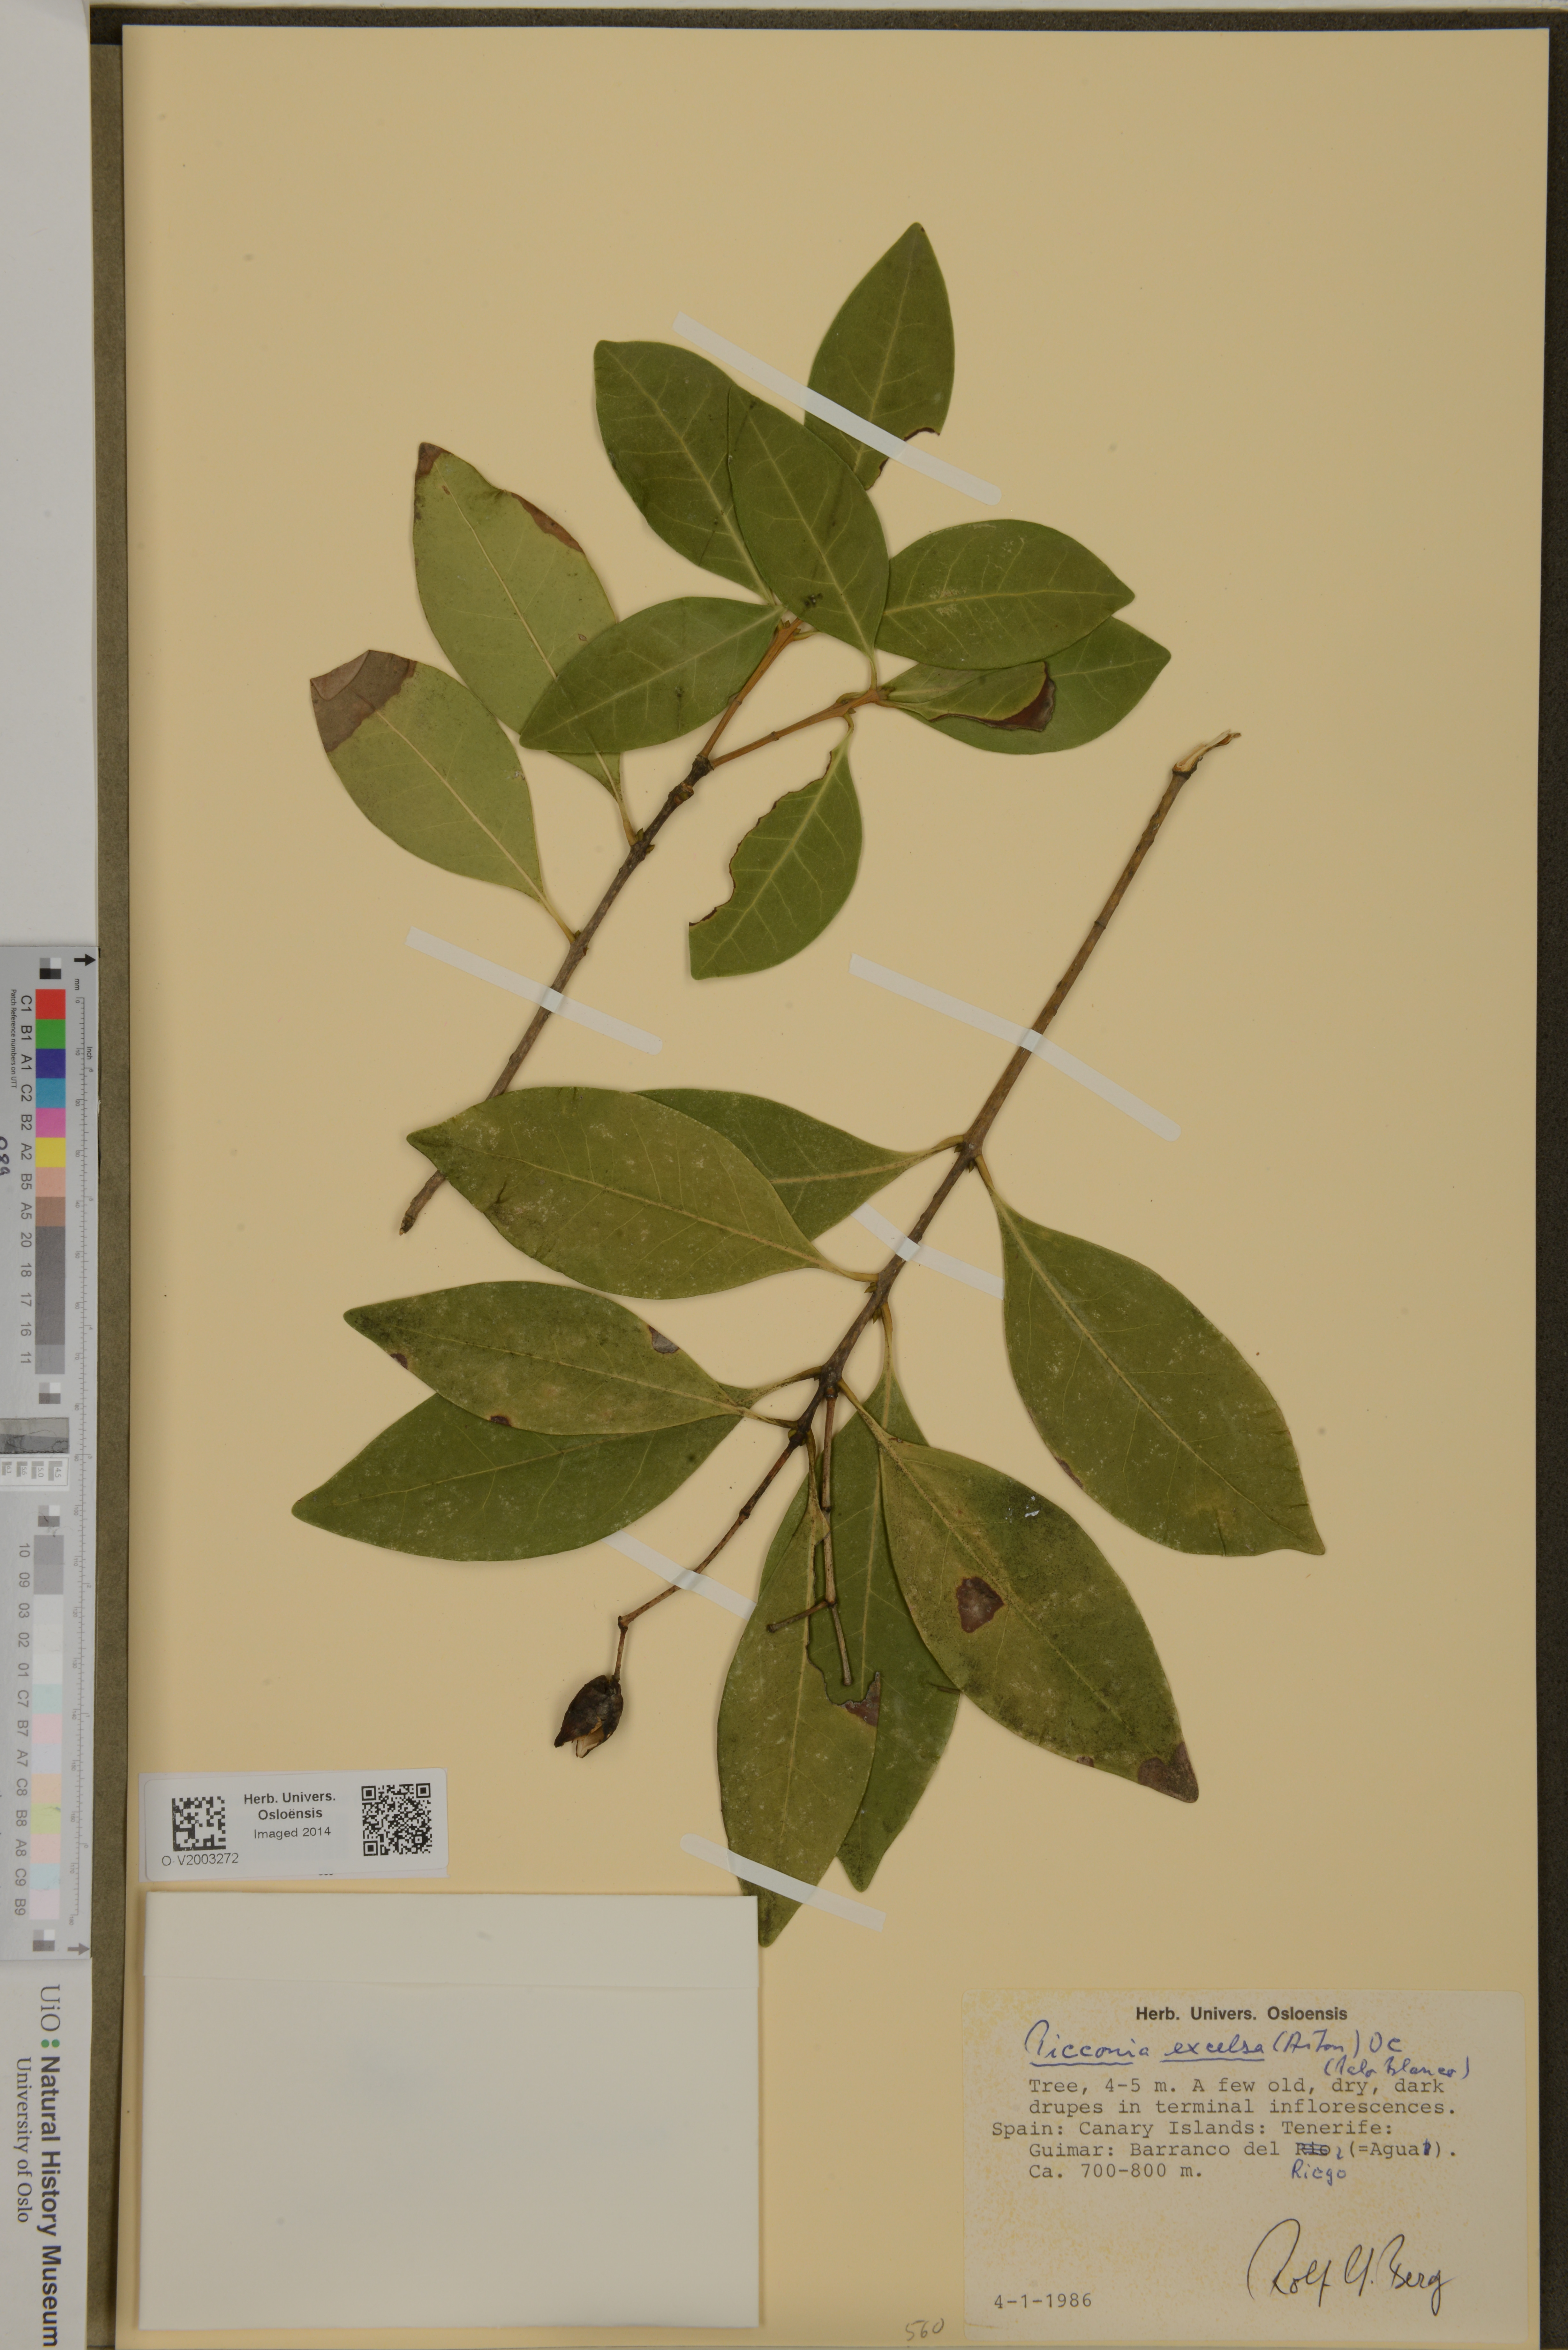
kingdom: Plantae
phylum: Tracheophyta
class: Magnoliopsida
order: Lamiales
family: Oleaceae
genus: Picconia
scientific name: Picconia excelsa
